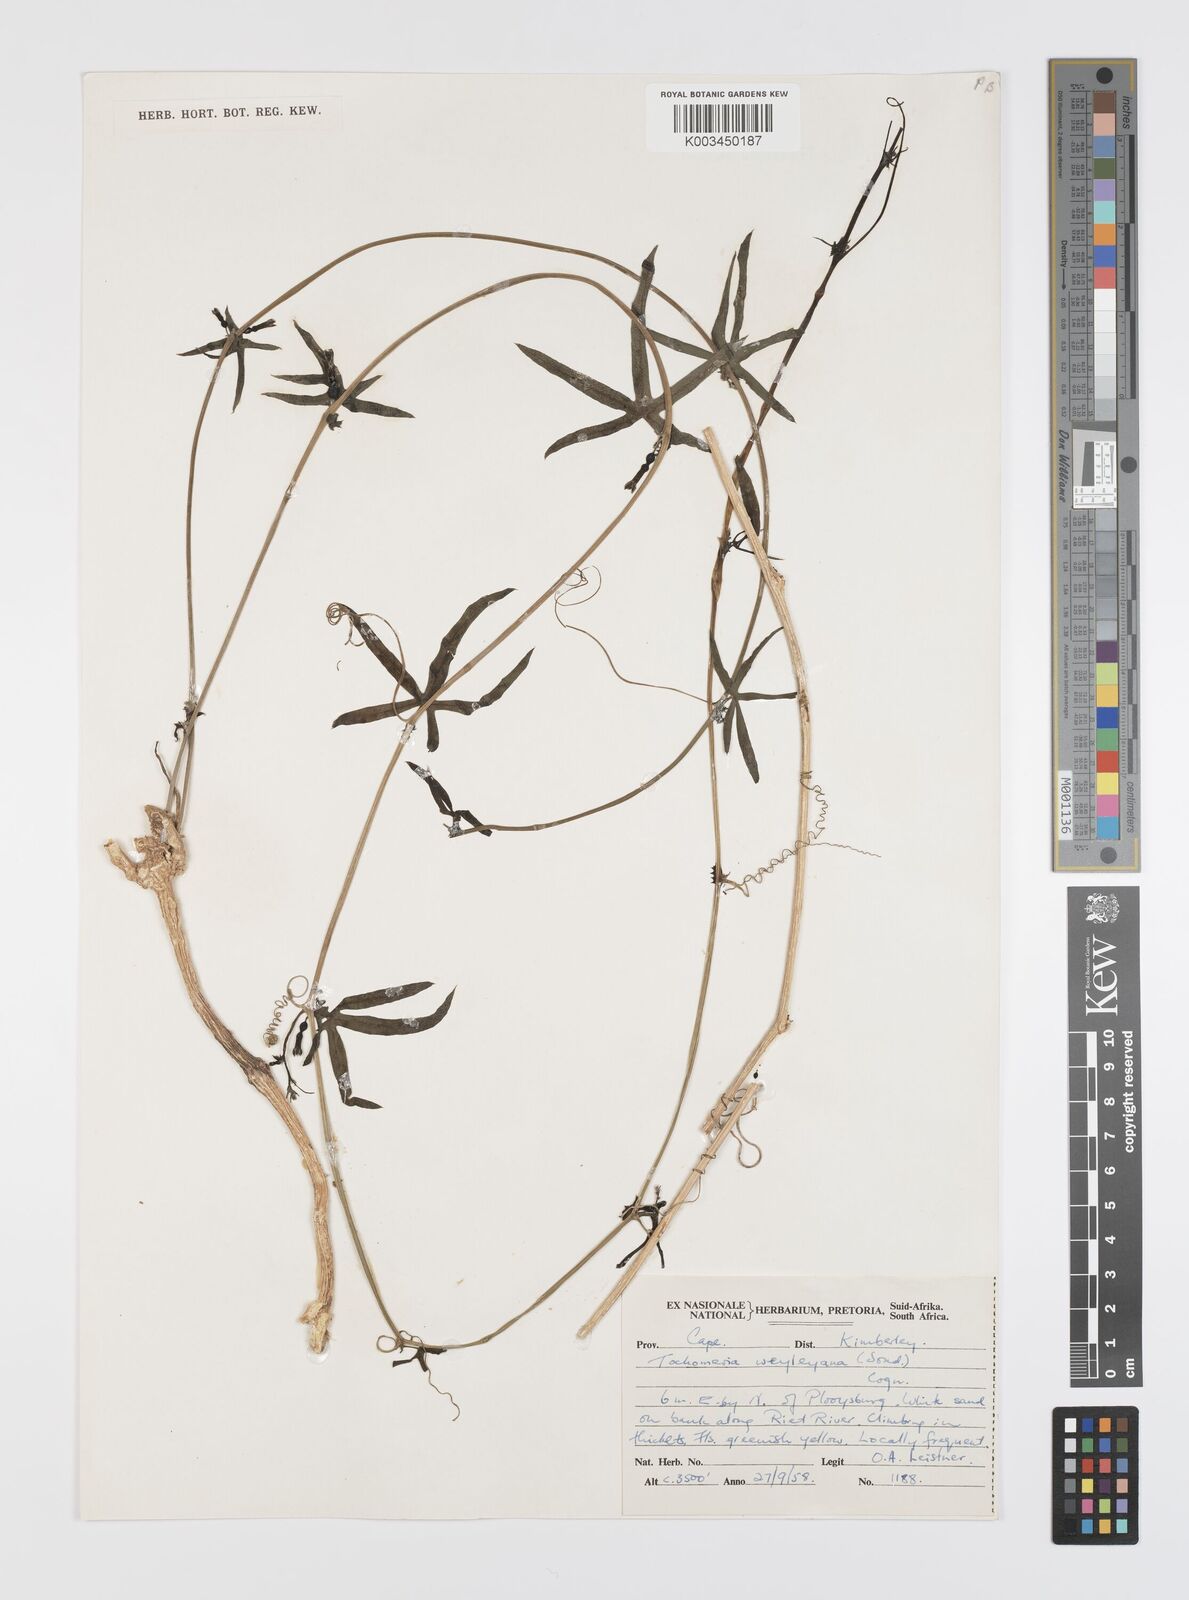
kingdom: Plantae
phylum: Tracheophyta
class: Magnoliopsida
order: Cucurbitales
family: Cucurbitaceae
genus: Trochomeria
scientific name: Trochomeria debilis
